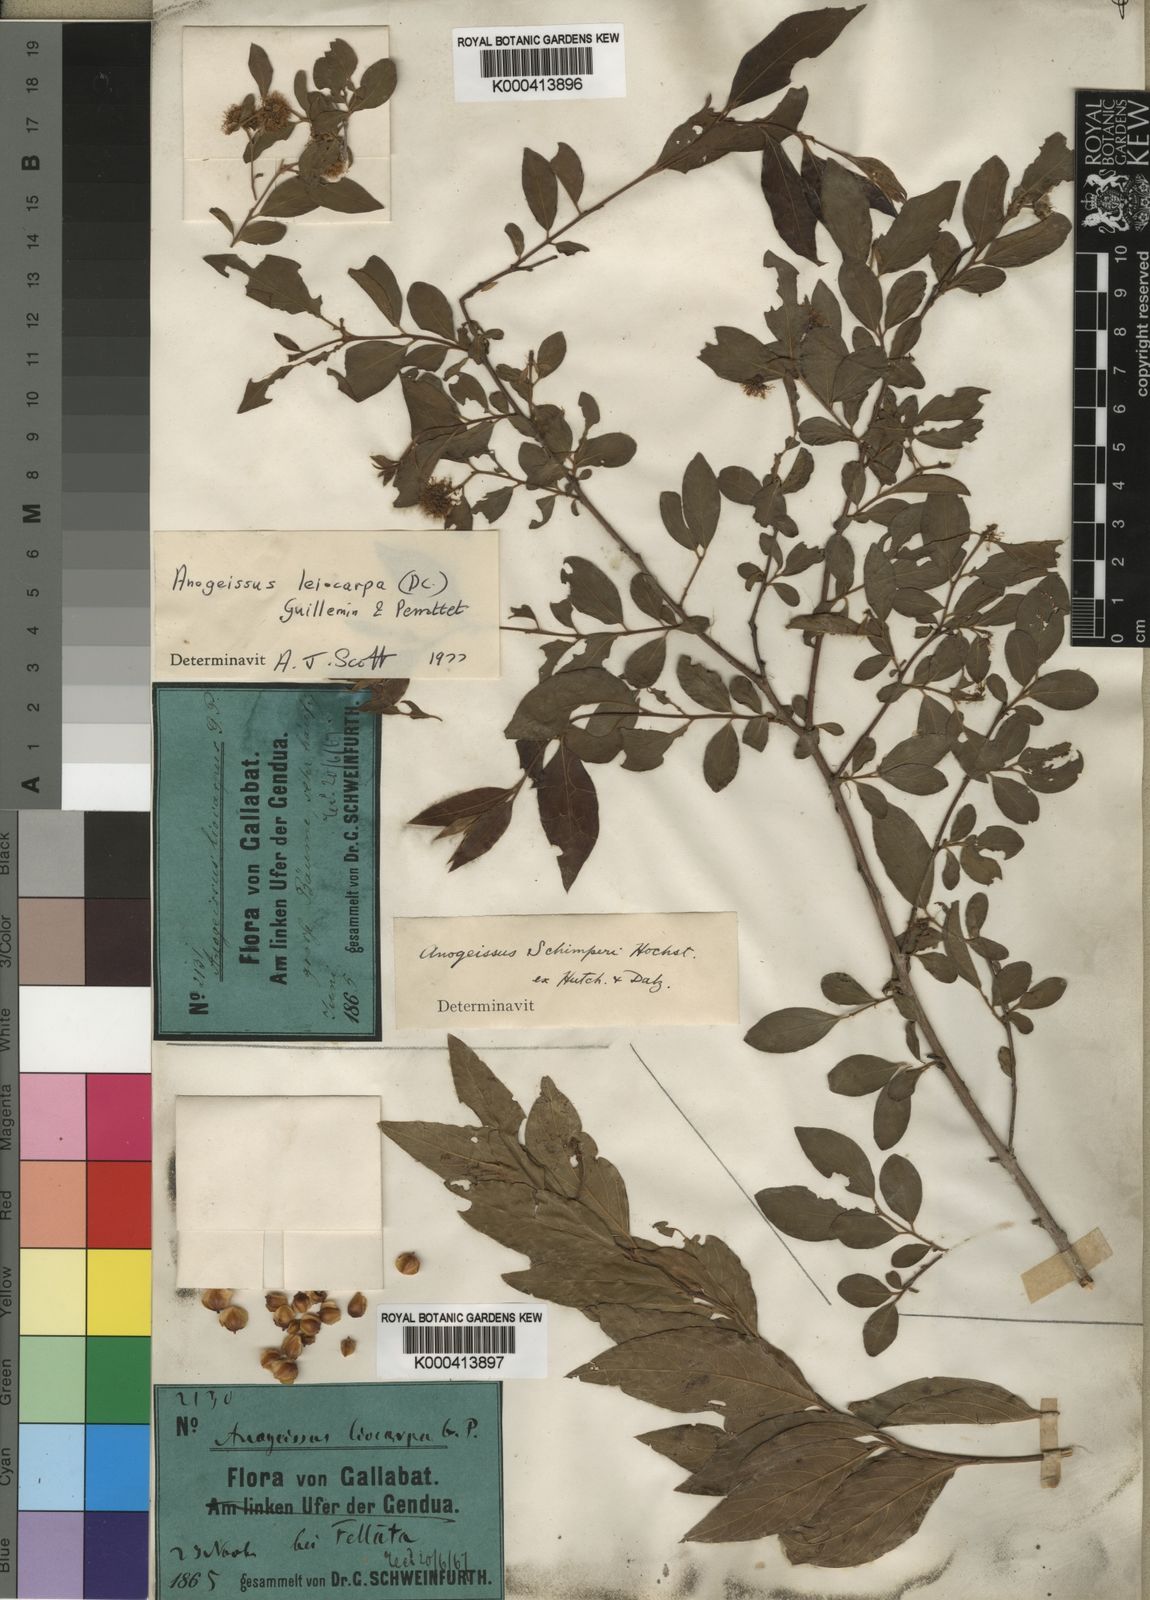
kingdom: Plantae
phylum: Tracheophyta
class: Magnoliopsida
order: Myrtales
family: Combretaceae
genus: Terminalia
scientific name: Terminalia leiocarpa
